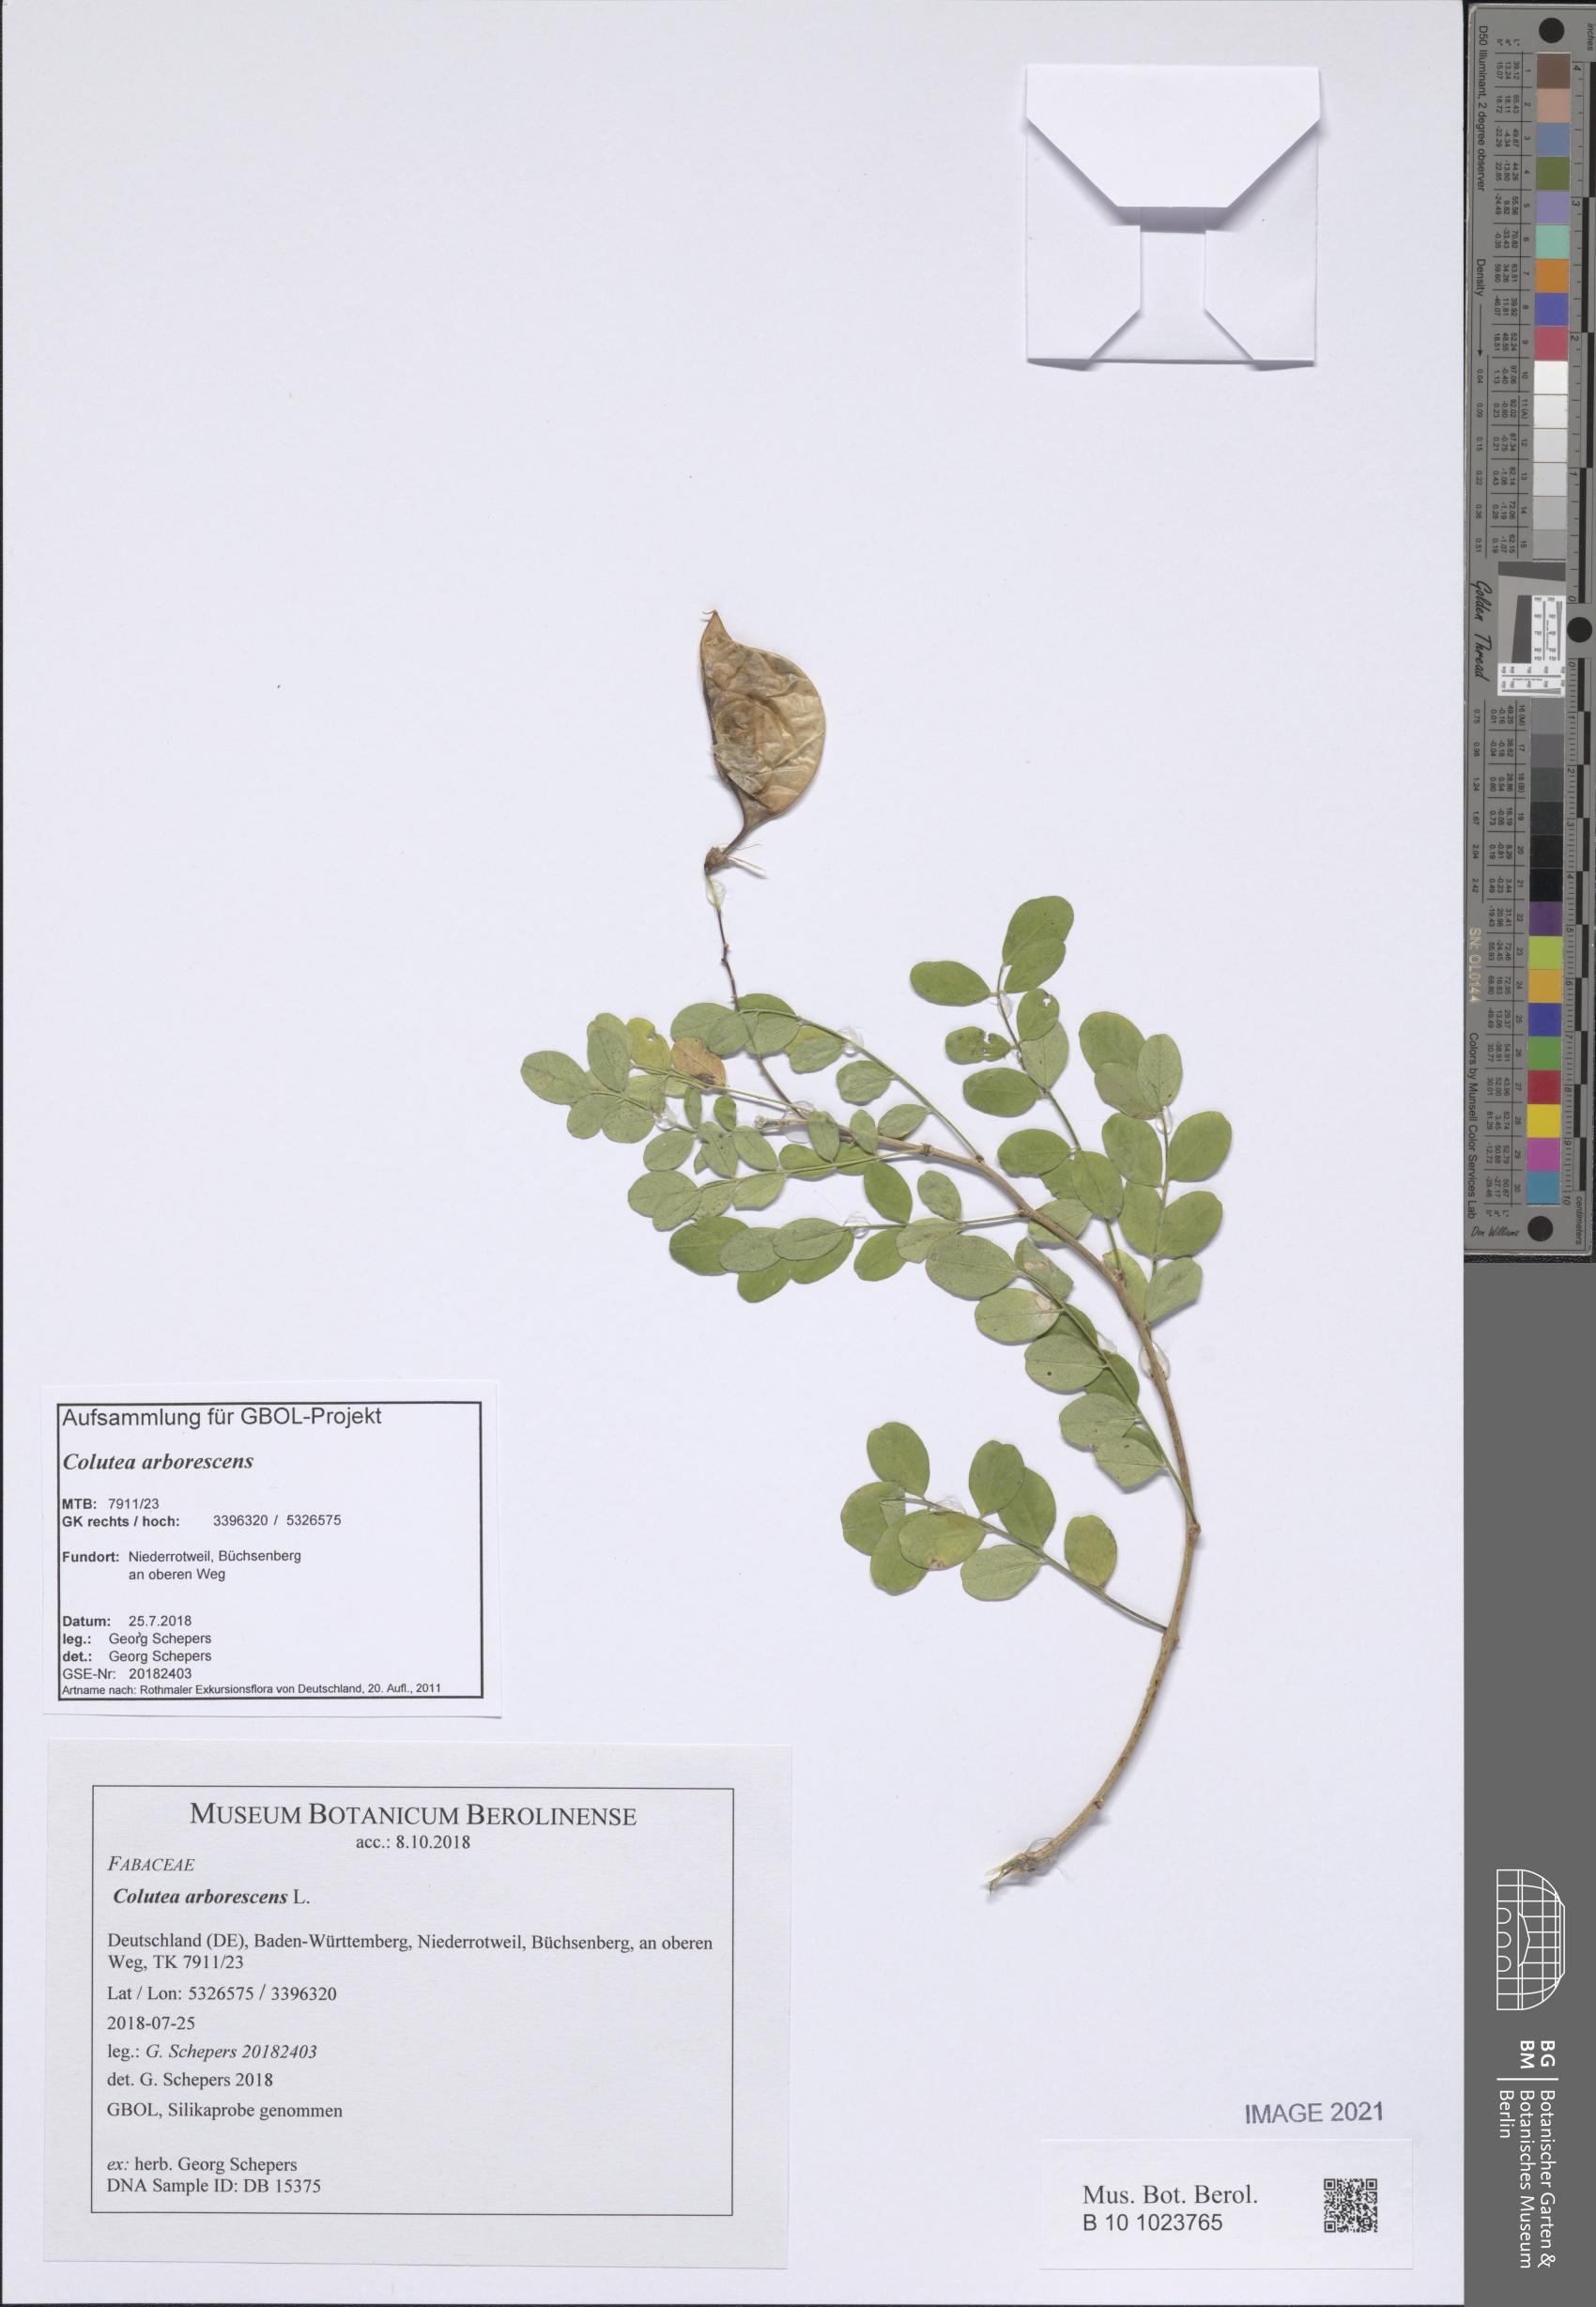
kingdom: Plantae
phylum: Tracheophyta
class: Magnoliopsida
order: Fabales
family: Fabaceae
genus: Colutea
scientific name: Colutea arborescens
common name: Bladder-senna
